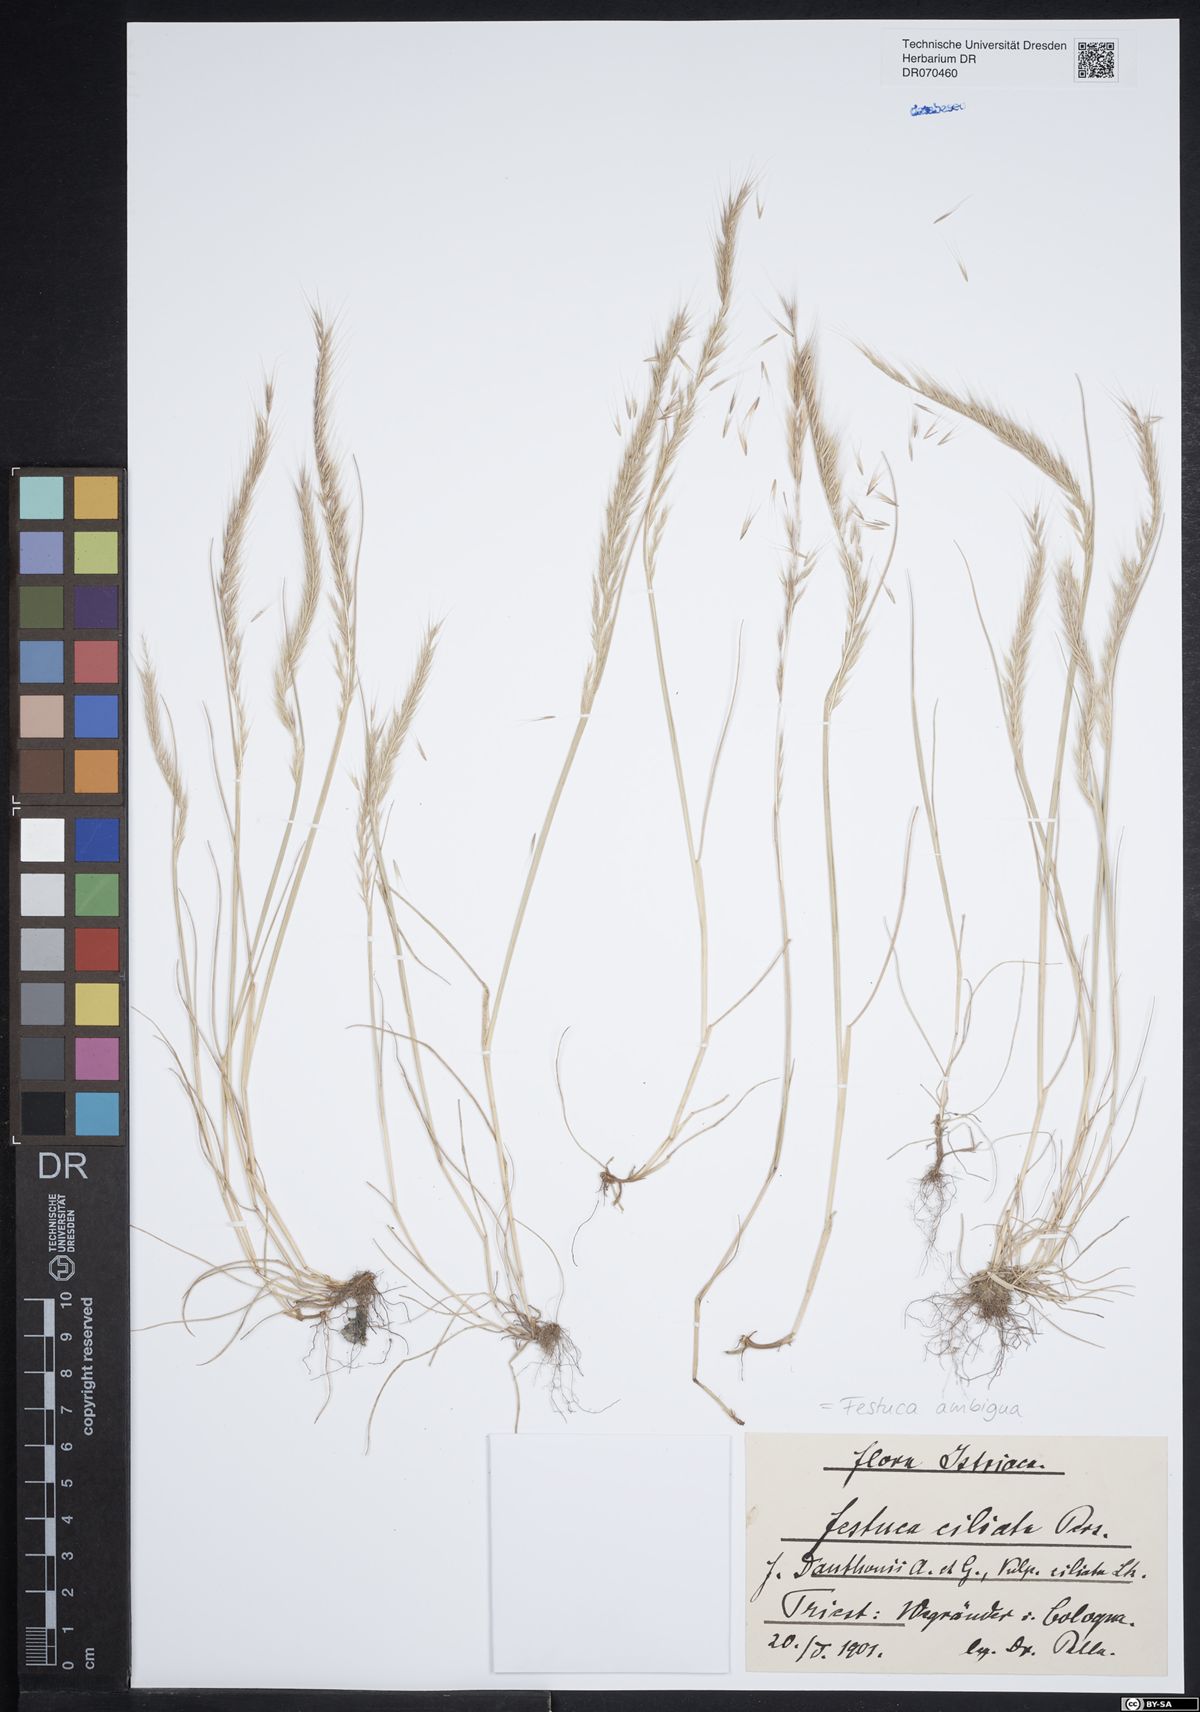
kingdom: Plantae
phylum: Tracheophyta
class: Liliopsida
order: Poales
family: Poaceae
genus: Festuca
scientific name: Festuca ambigua
